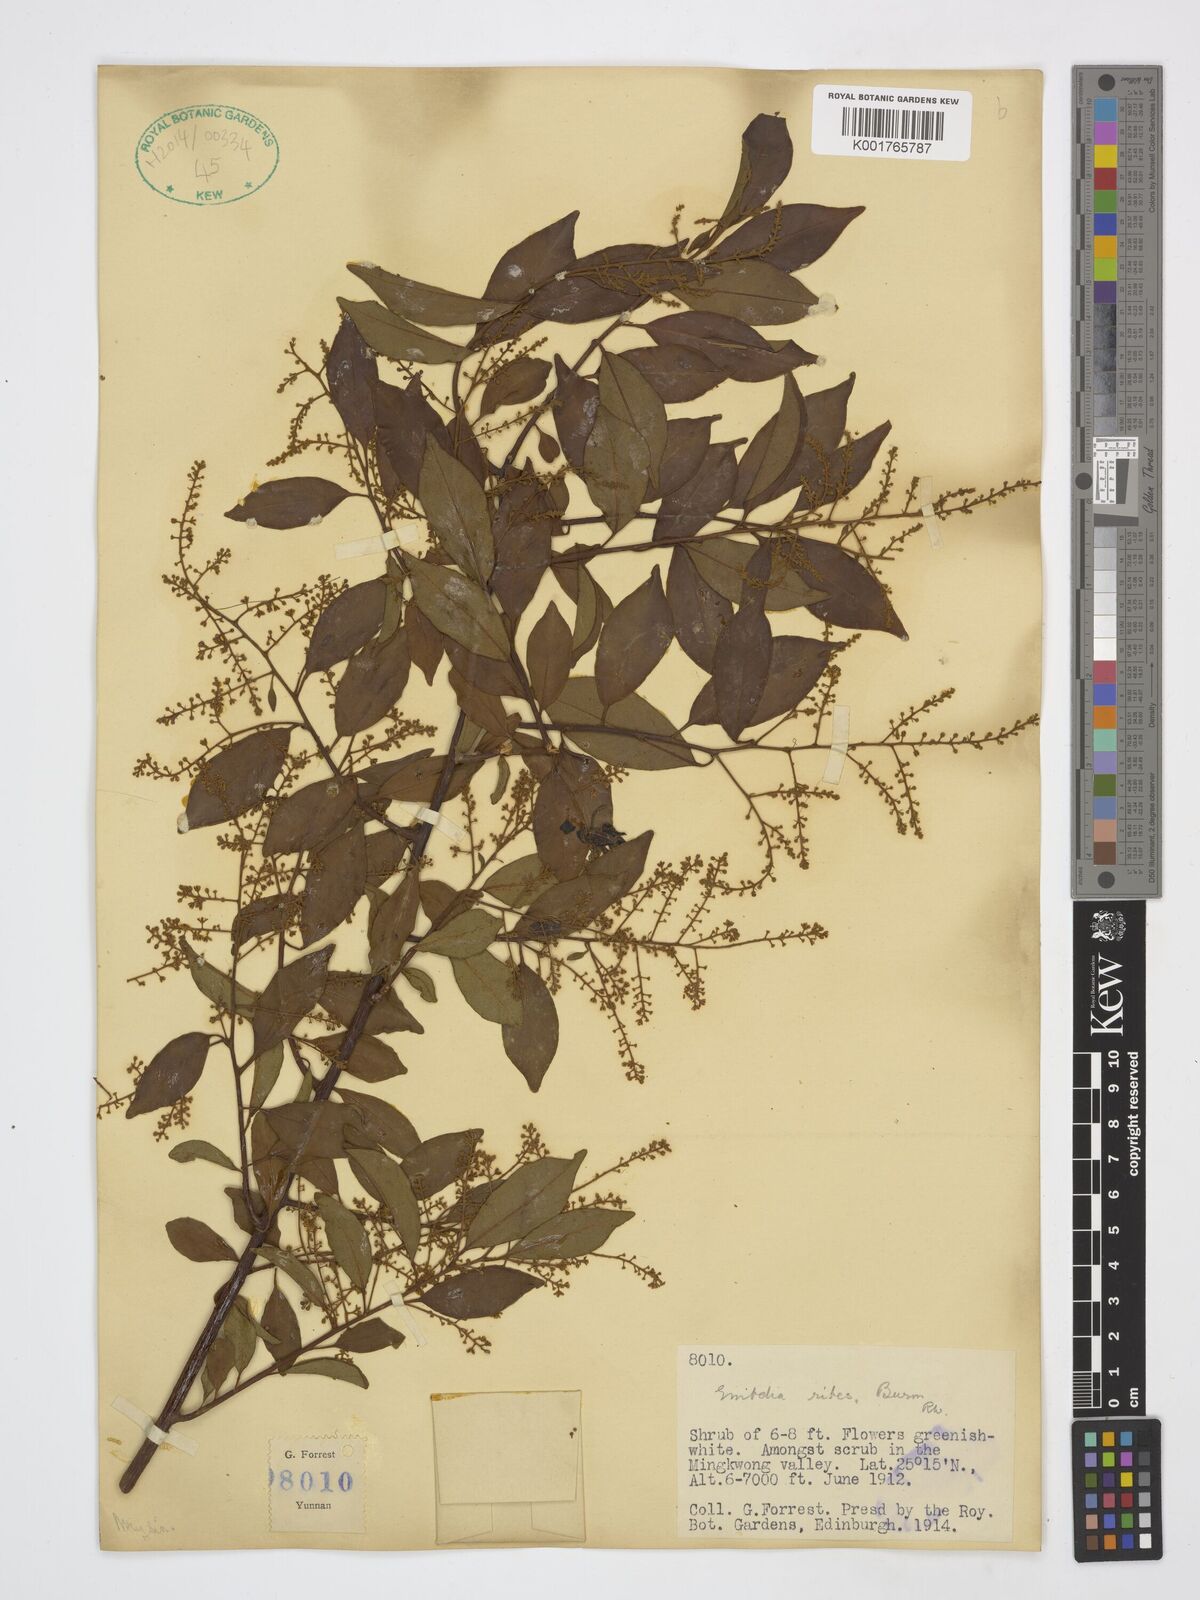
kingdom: Plantae
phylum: Tracheophyta
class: Magnoliopsida
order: Ericales
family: Primulaceae
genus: Embelia
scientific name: Embelia ribes
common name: Vidanga
